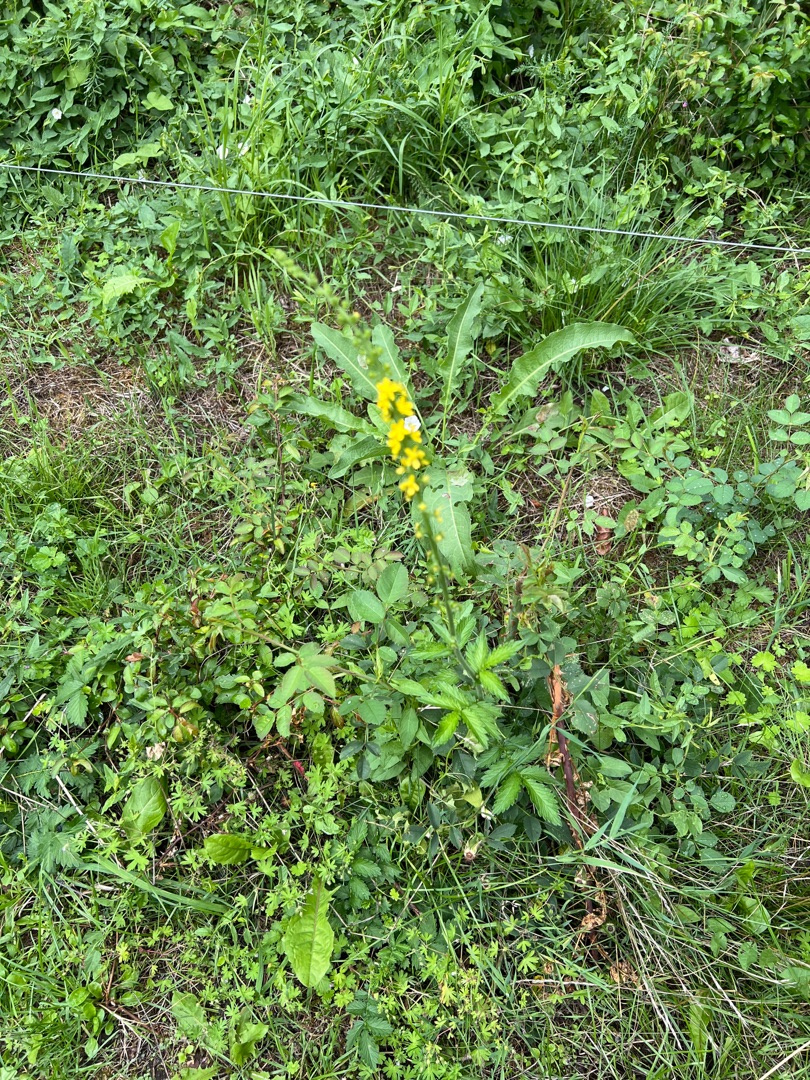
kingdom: Plantae
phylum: Tracheophyta
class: Magnoliopsida
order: Rosales
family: Rosaceae
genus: Agrimonia
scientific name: Agrimonia eupatoria
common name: Almindelig agermåne
